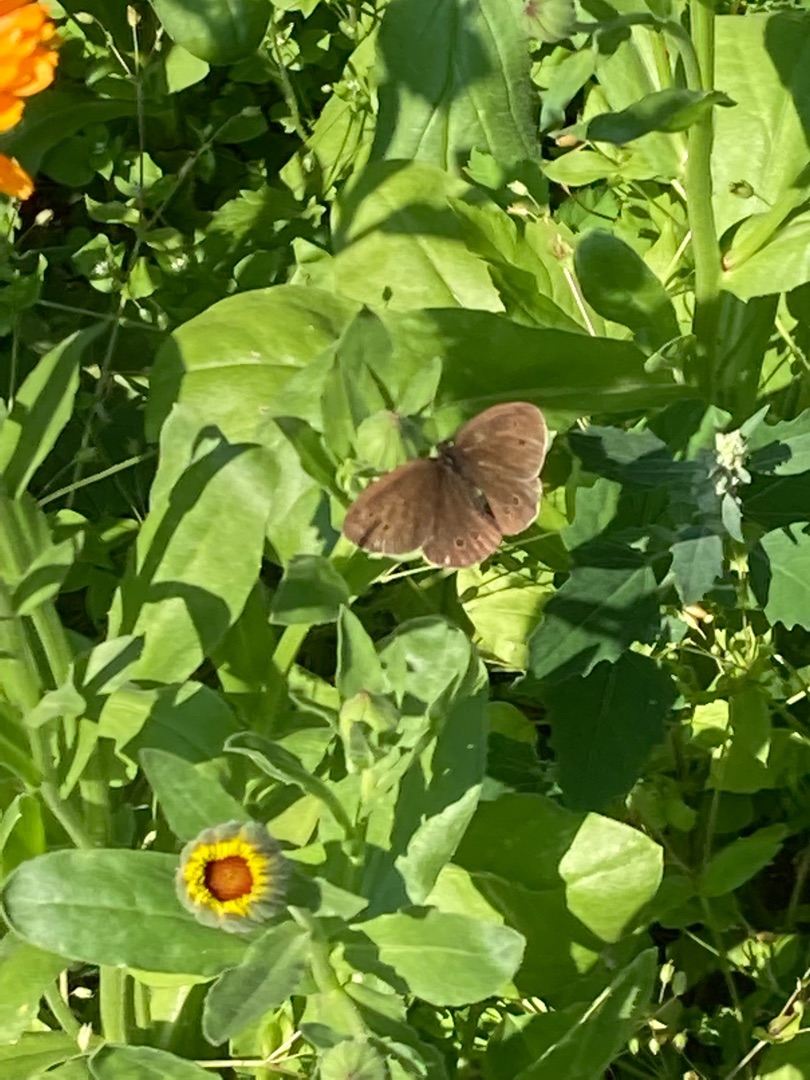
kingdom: Animalia
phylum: Arthropoda
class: Insecta
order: Lepidoptera
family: Nymphalidae
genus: Aphantopus
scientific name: Aphantopus hyperantus
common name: Engrandøje
